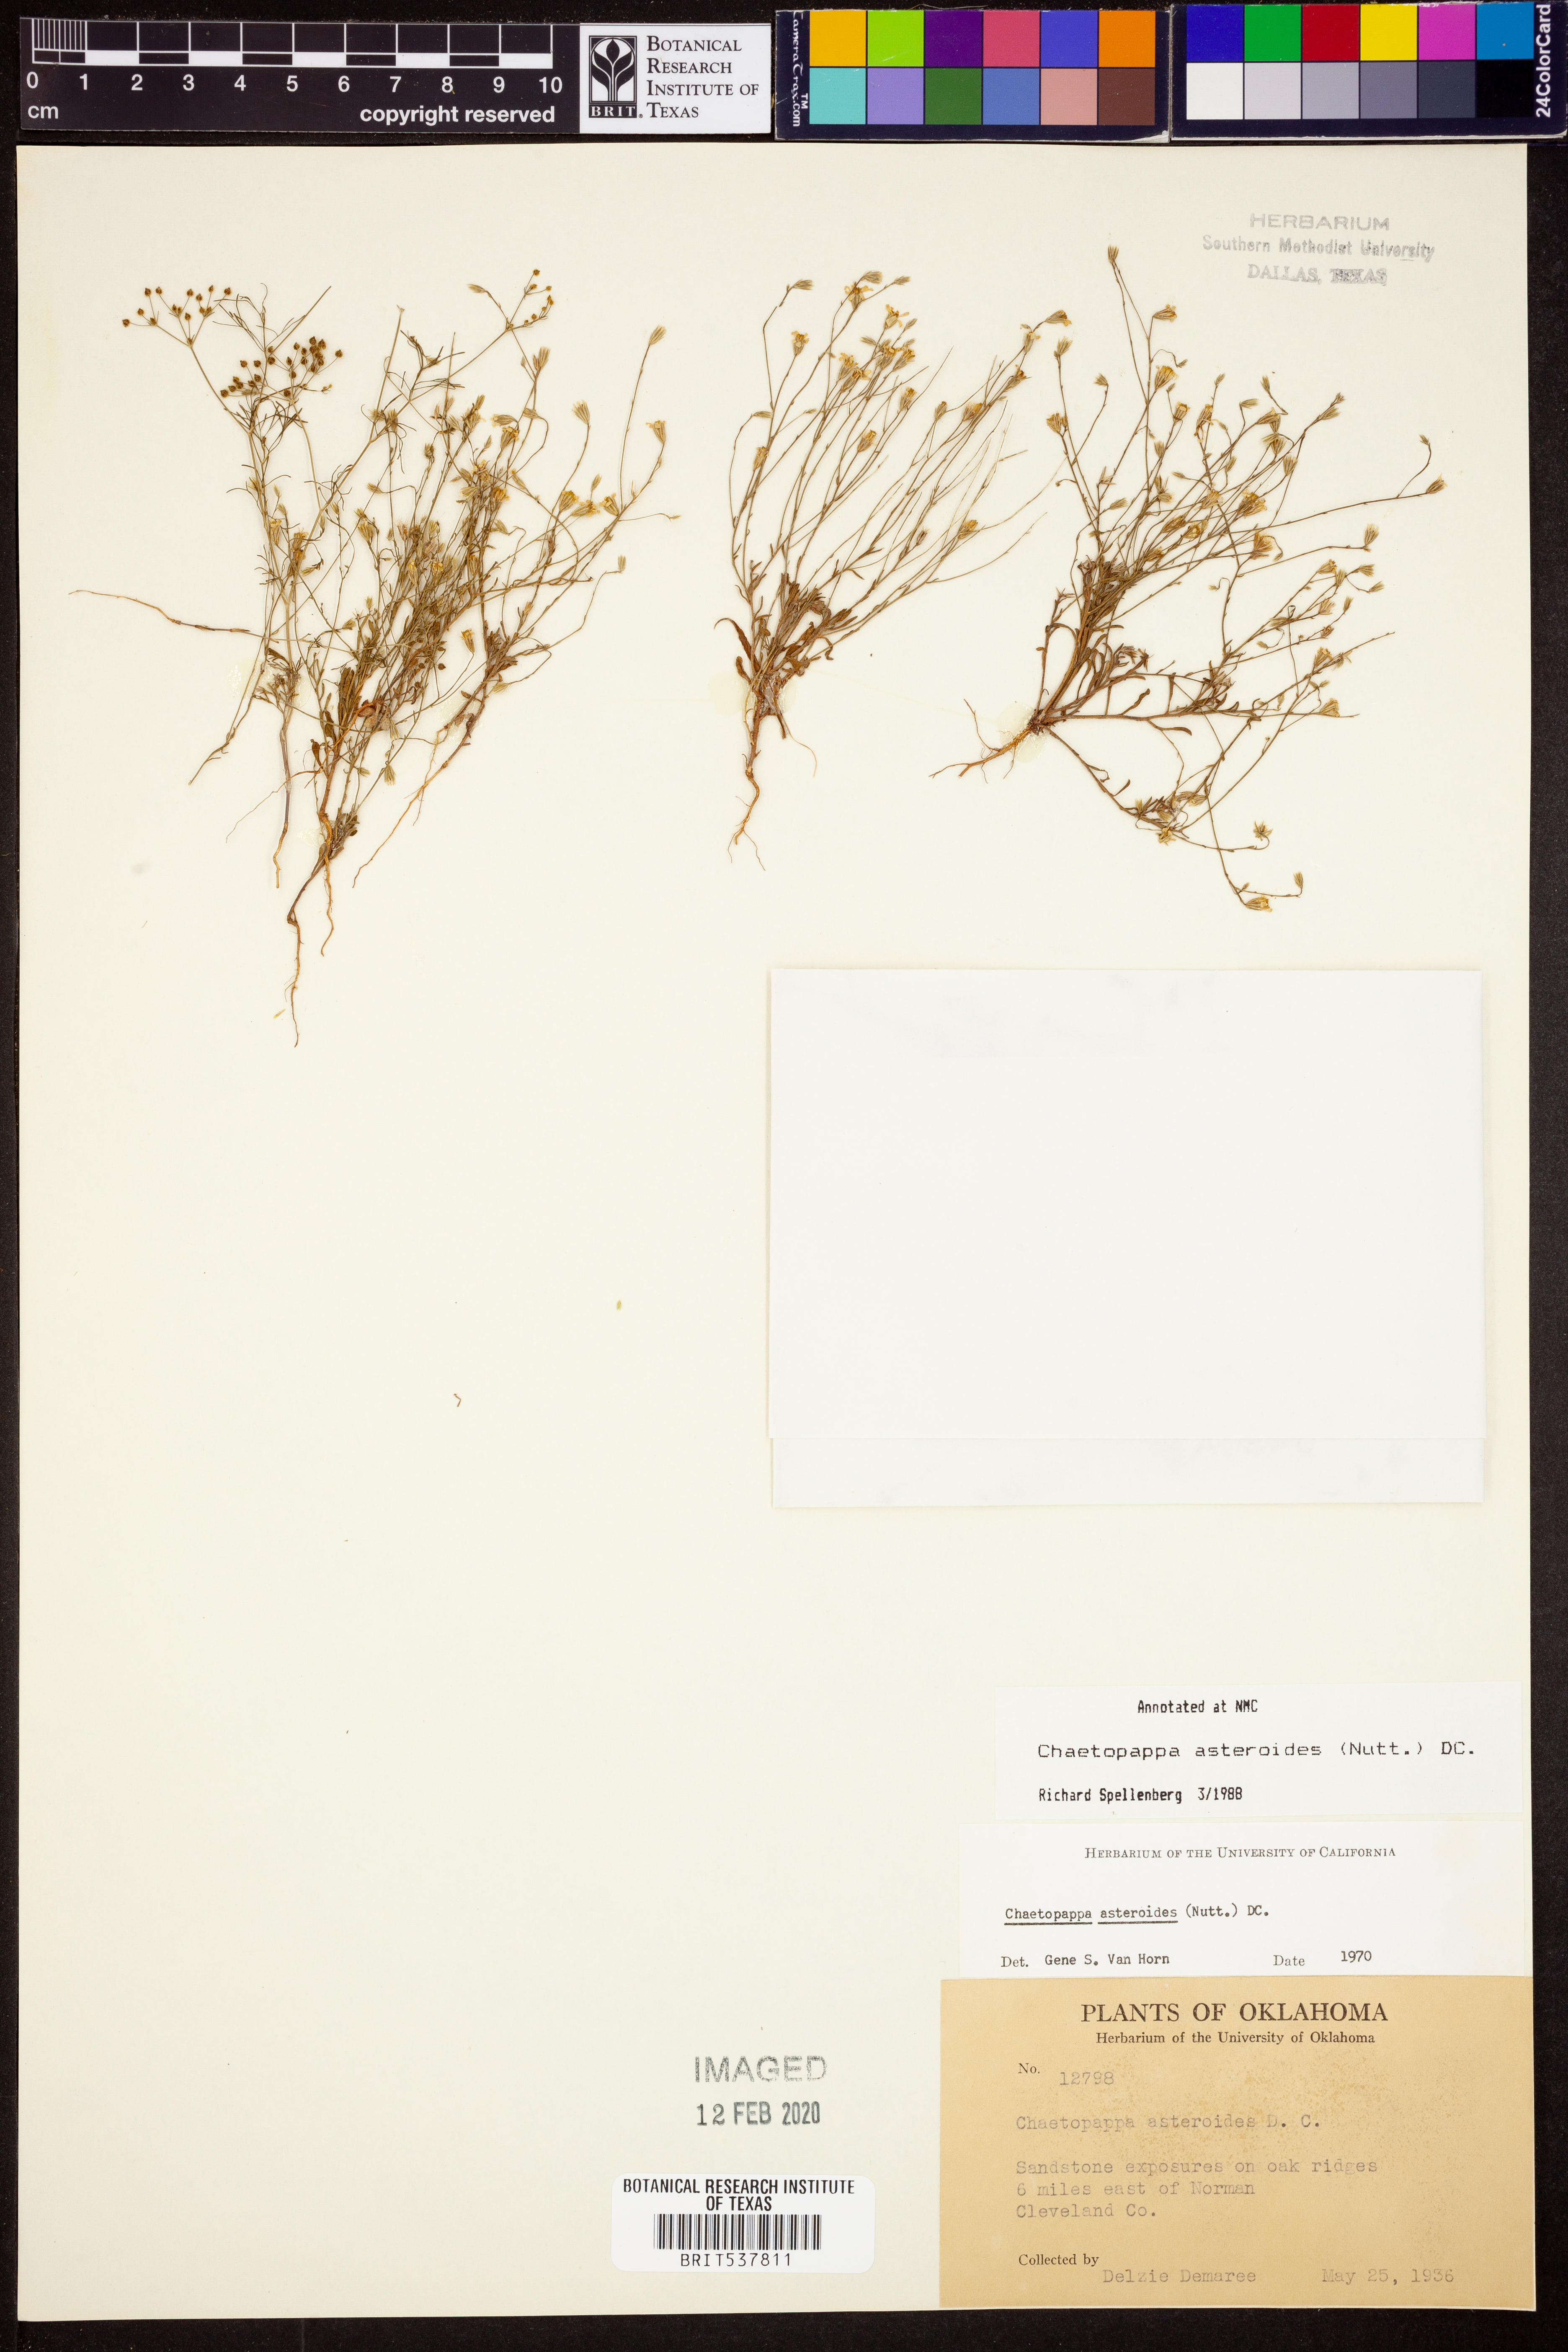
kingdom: Plantae
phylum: Tracheophyta
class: Magnoliopsida
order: Asterales
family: Asteraceae
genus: Chaetopappa
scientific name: Chaetopappa asteroides
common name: Tiny lazy daisy
